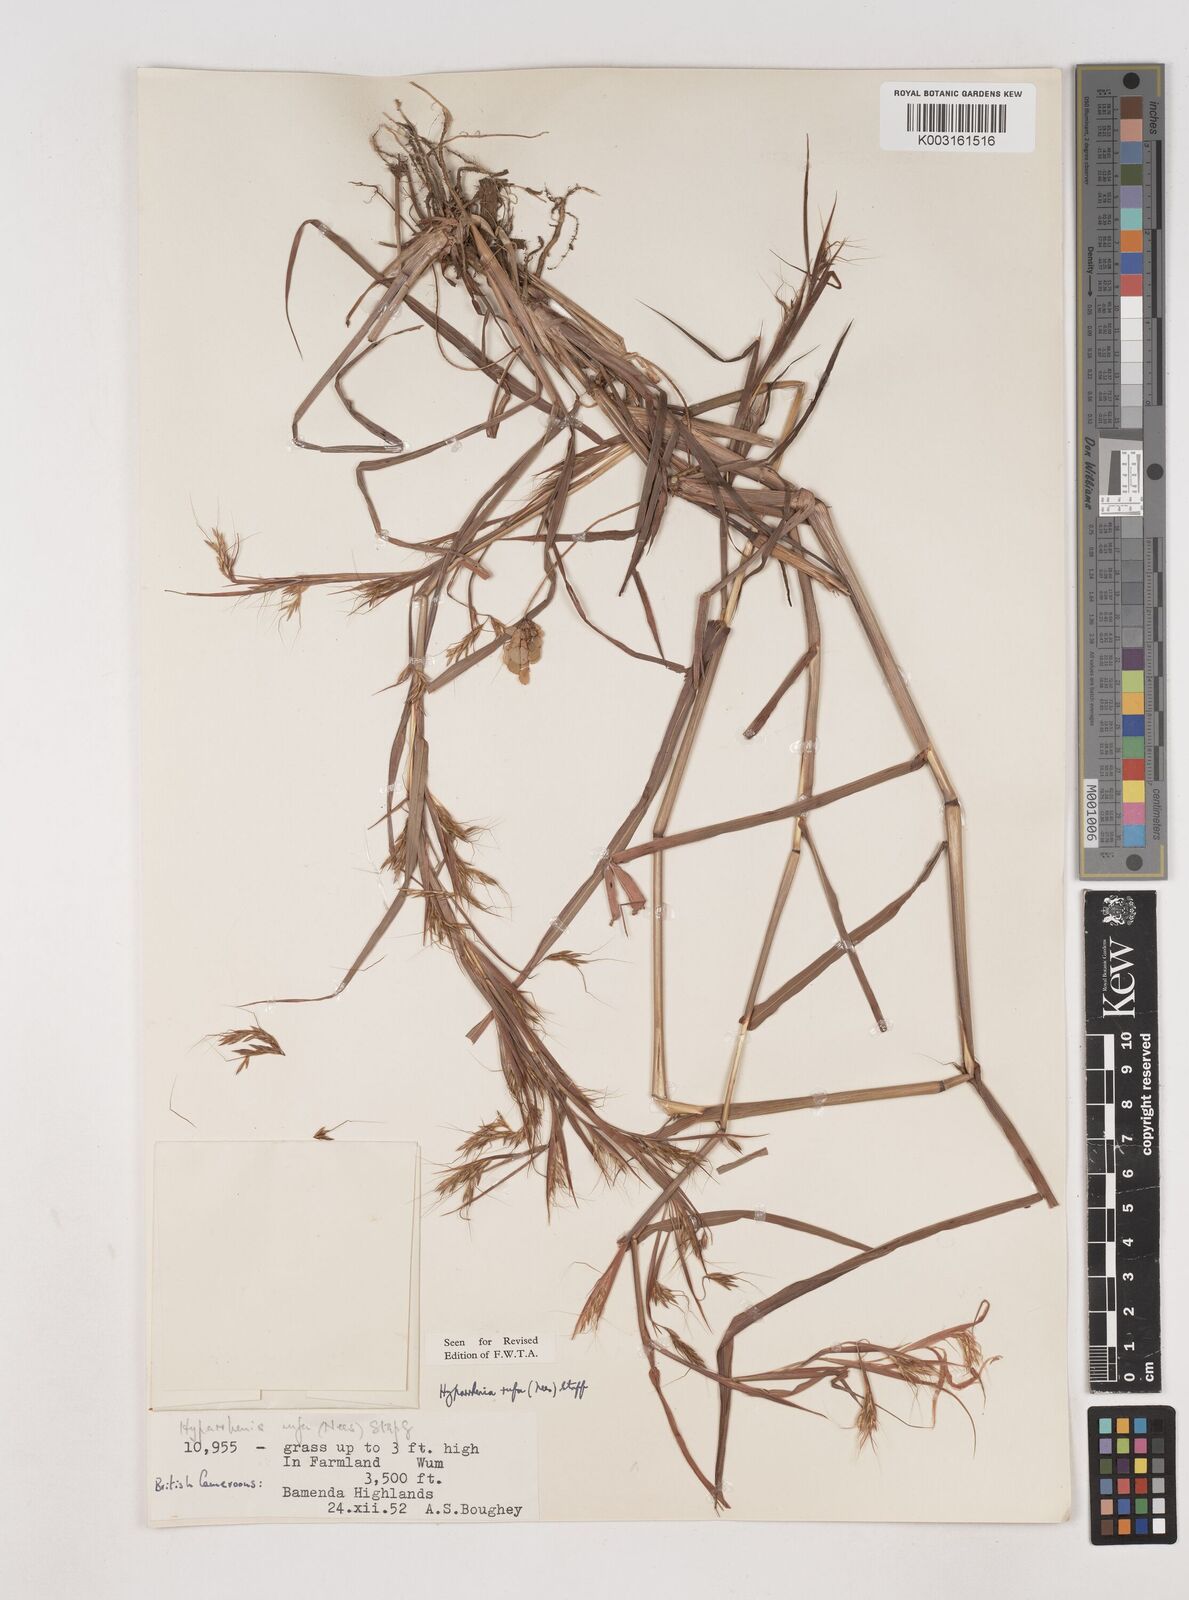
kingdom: Plantae
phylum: Tracheophyta
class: Liliopsida
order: Poales
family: Poaceae
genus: Hyparrhenia
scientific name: Hyparrhenia rufa
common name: Jaraguagrass
